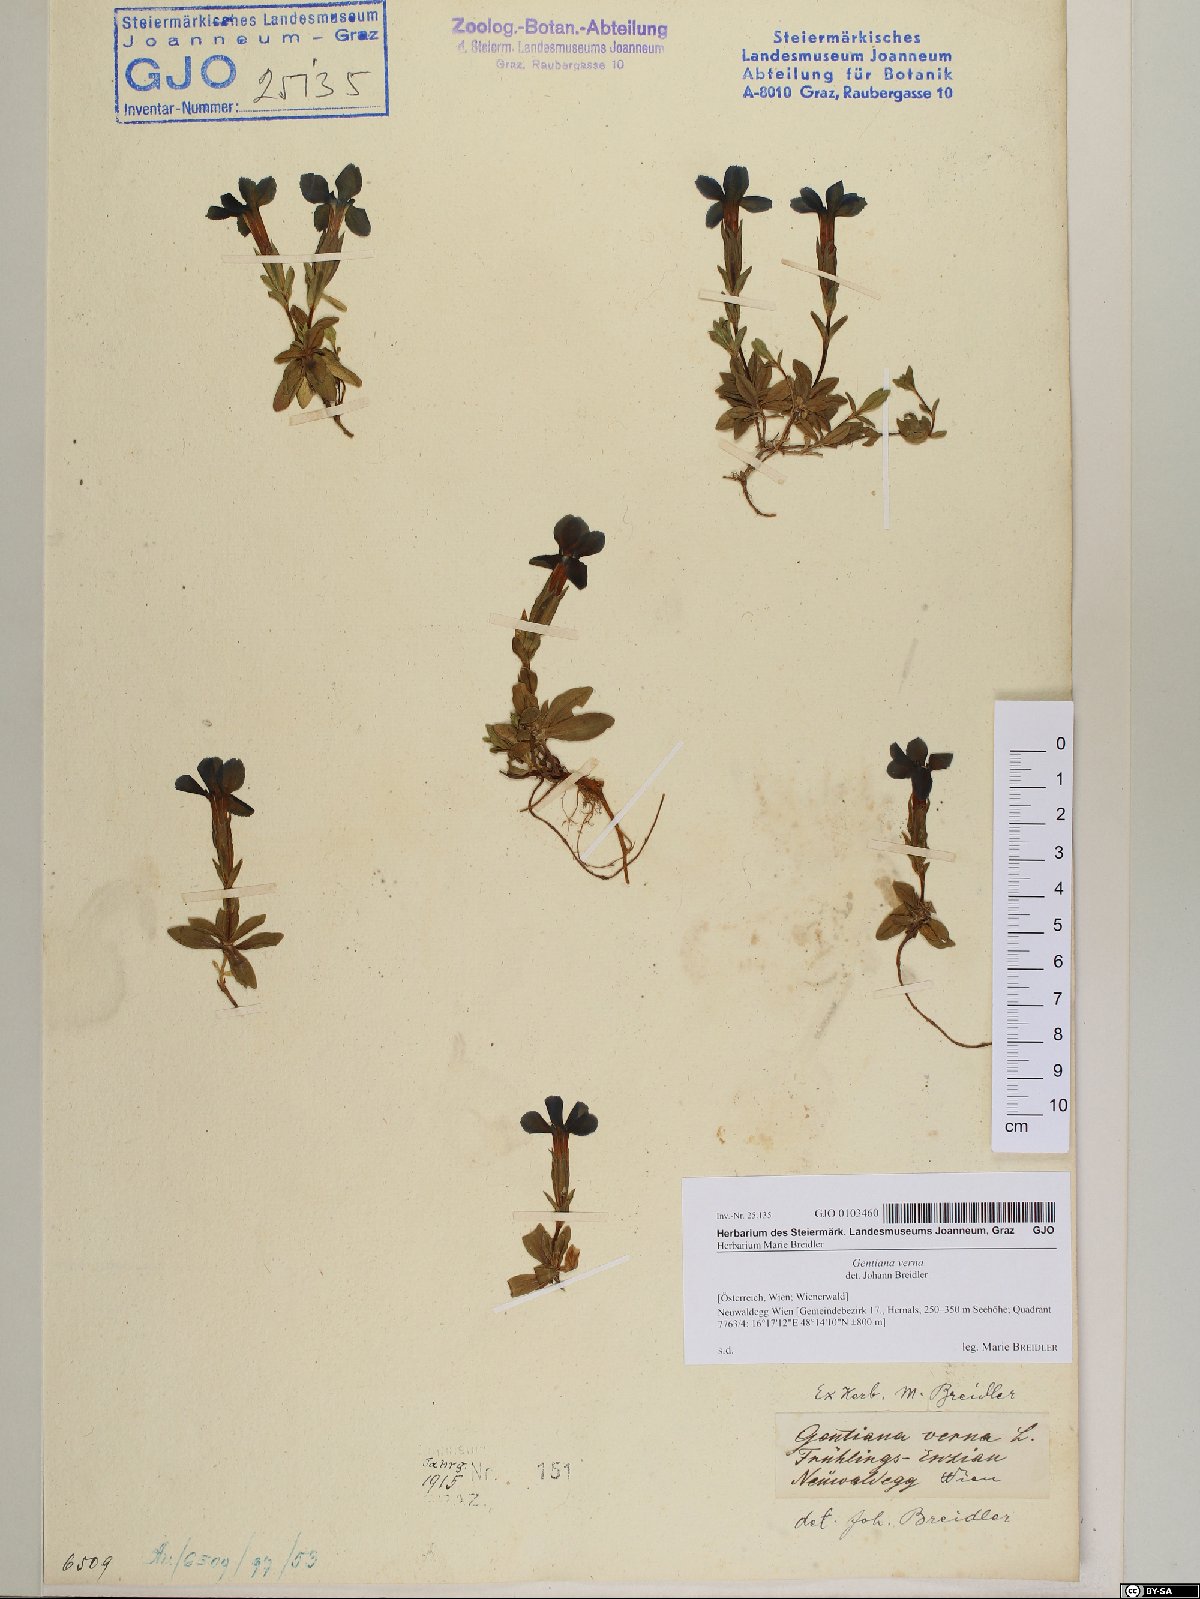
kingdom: Plantae
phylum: Tracheophyta
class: Magnoliopsida
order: Gentianales
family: Gentianaceae
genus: Gentiana
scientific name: Gentiana verna
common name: Spring gentian
